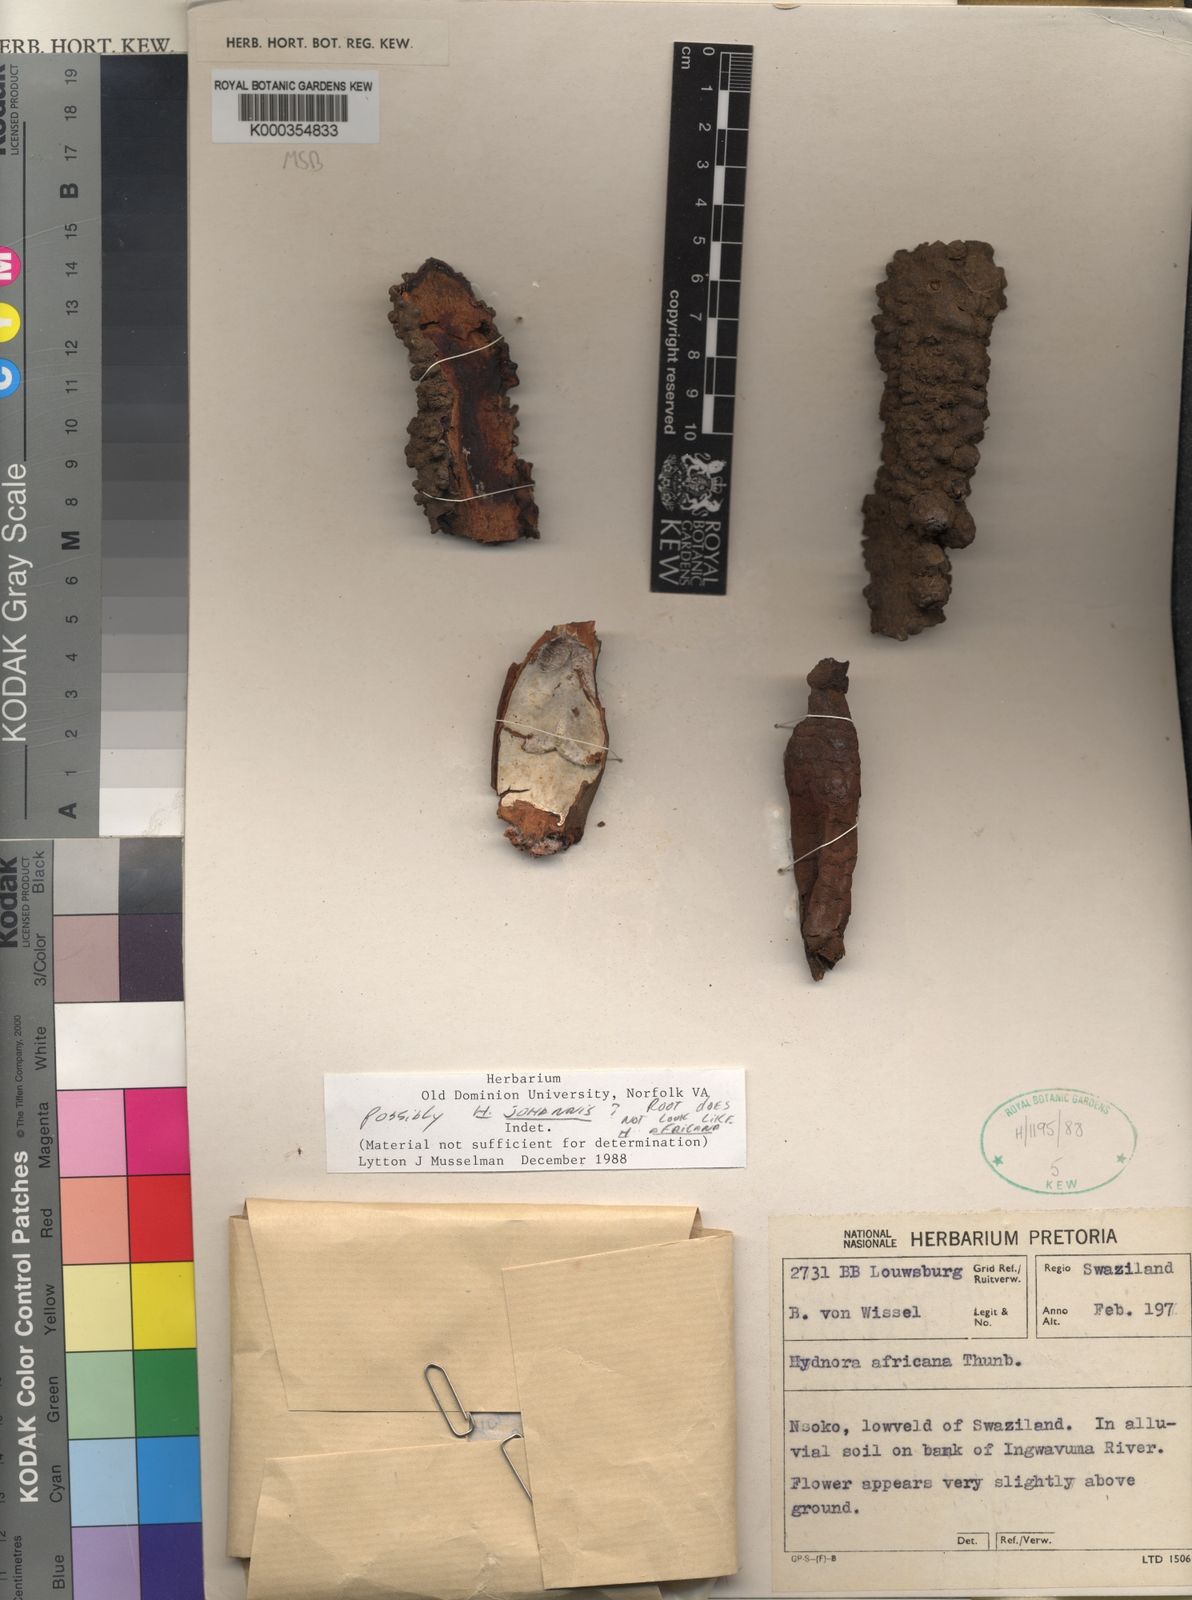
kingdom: Plantae
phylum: Tracheophyta
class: Magnoliopsida
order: Piperales
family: Hydnoraceae
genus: Hydnora
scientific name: Hydnora abyssinica
